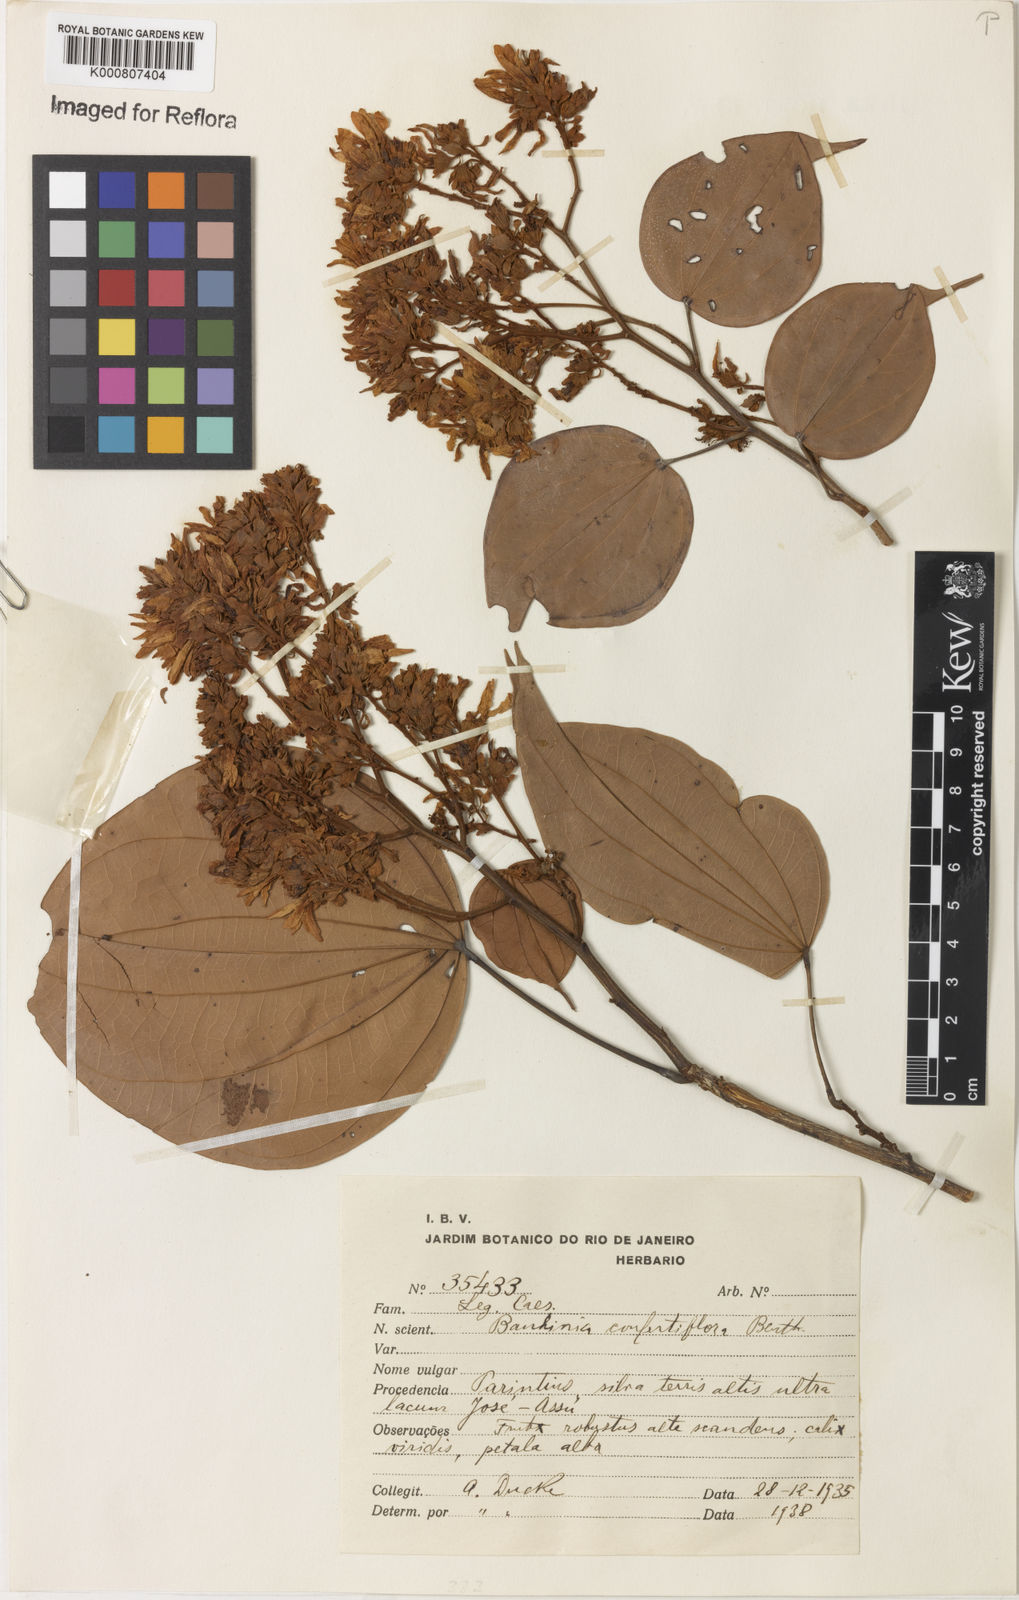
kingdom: Plantae
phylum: Tracheophyta
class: Magnoliopsida
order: Fabales
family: Fabaceae
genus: Schnella
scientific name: Schnella confertiflora
